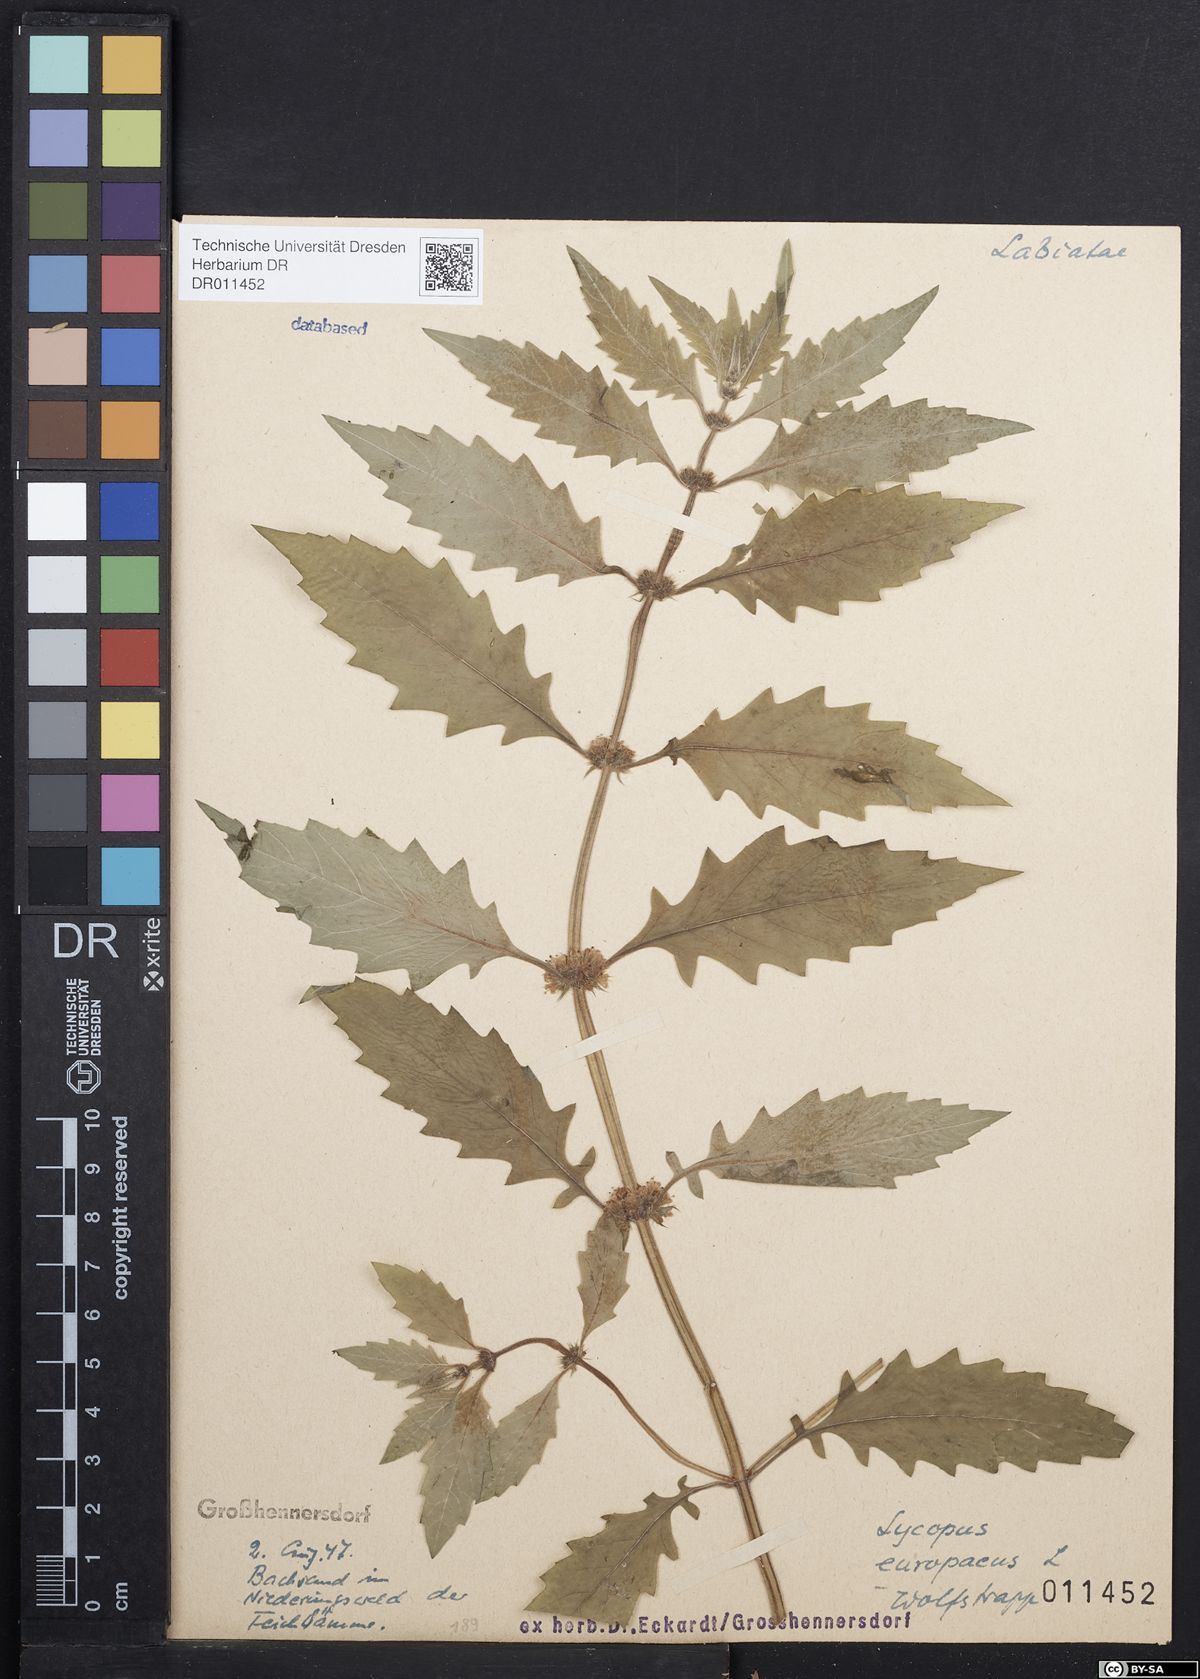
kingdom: Plantae
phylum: Tracheophyta
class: Magnoliopsida
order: Lamiales
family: Lamiaceae
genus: Lycopus
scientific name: Lycopus europaeus
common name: European bugleweed
